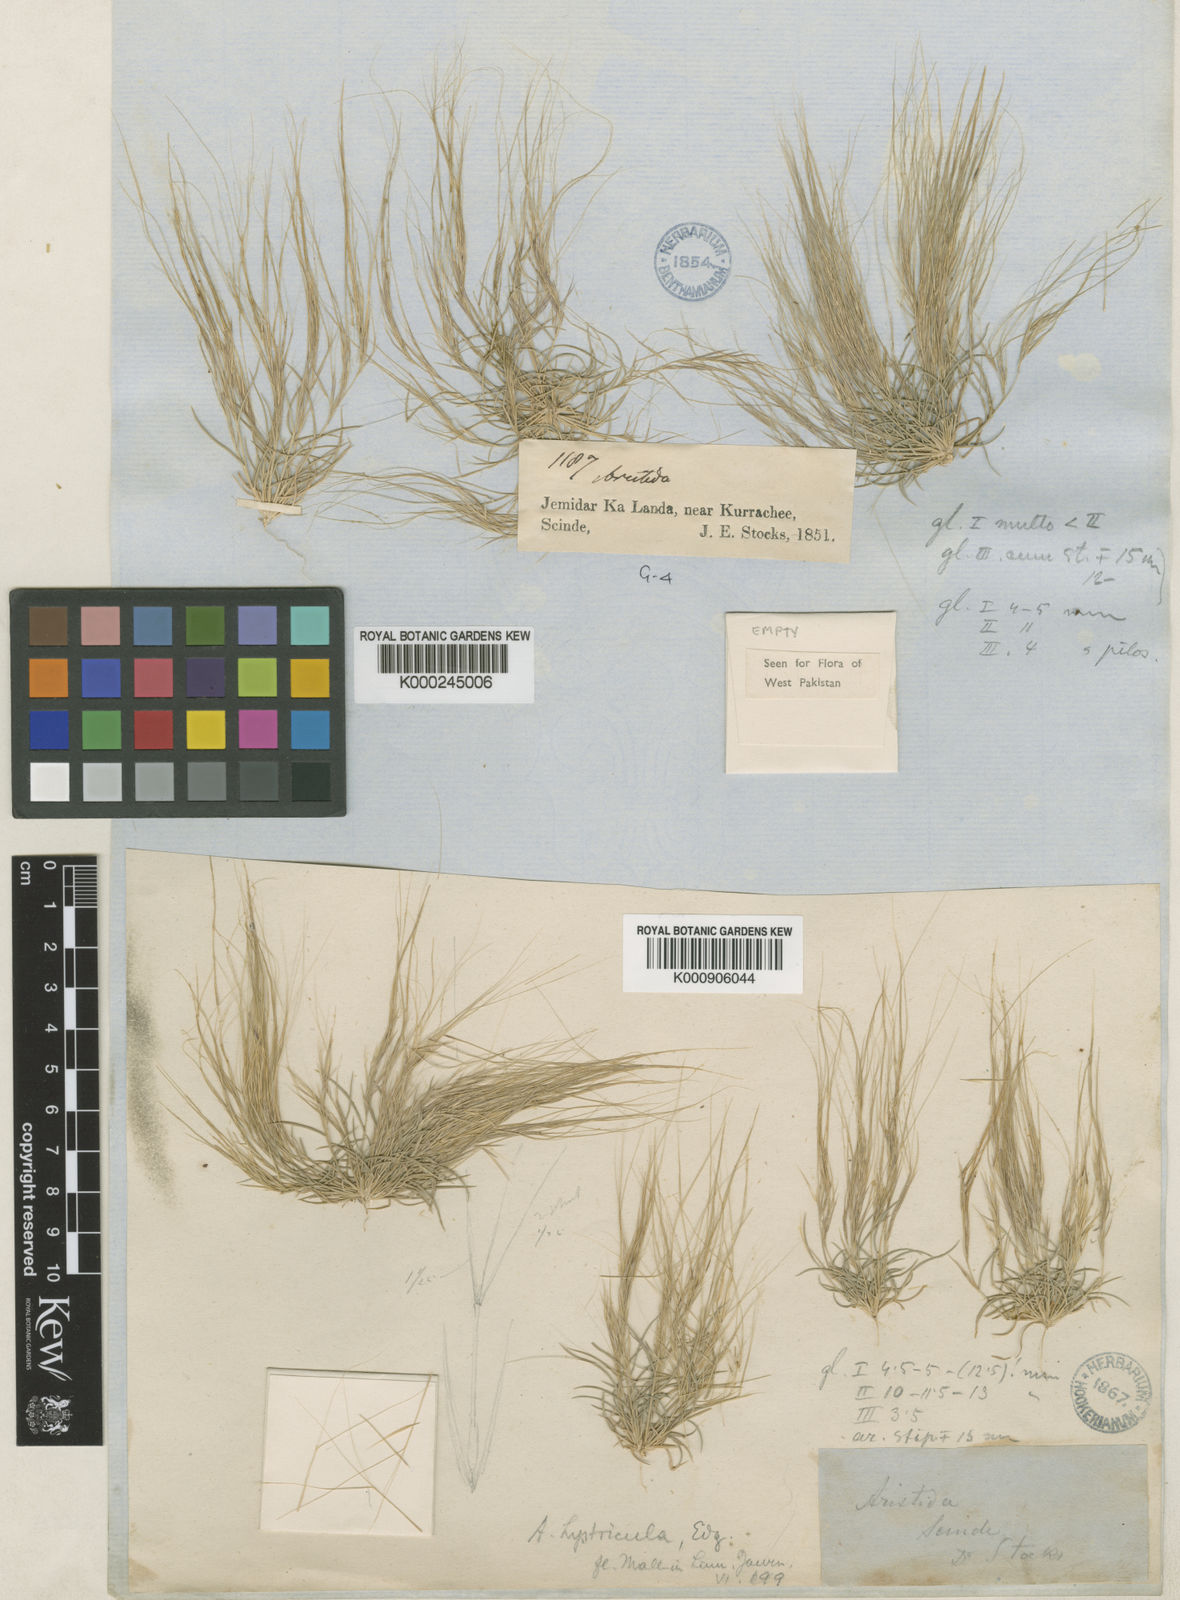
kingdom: Plantae
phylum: Tracheophyta
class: Liliopsida
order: Poales
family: Poaceae
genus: Aristida
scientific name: Aristida hystricula
